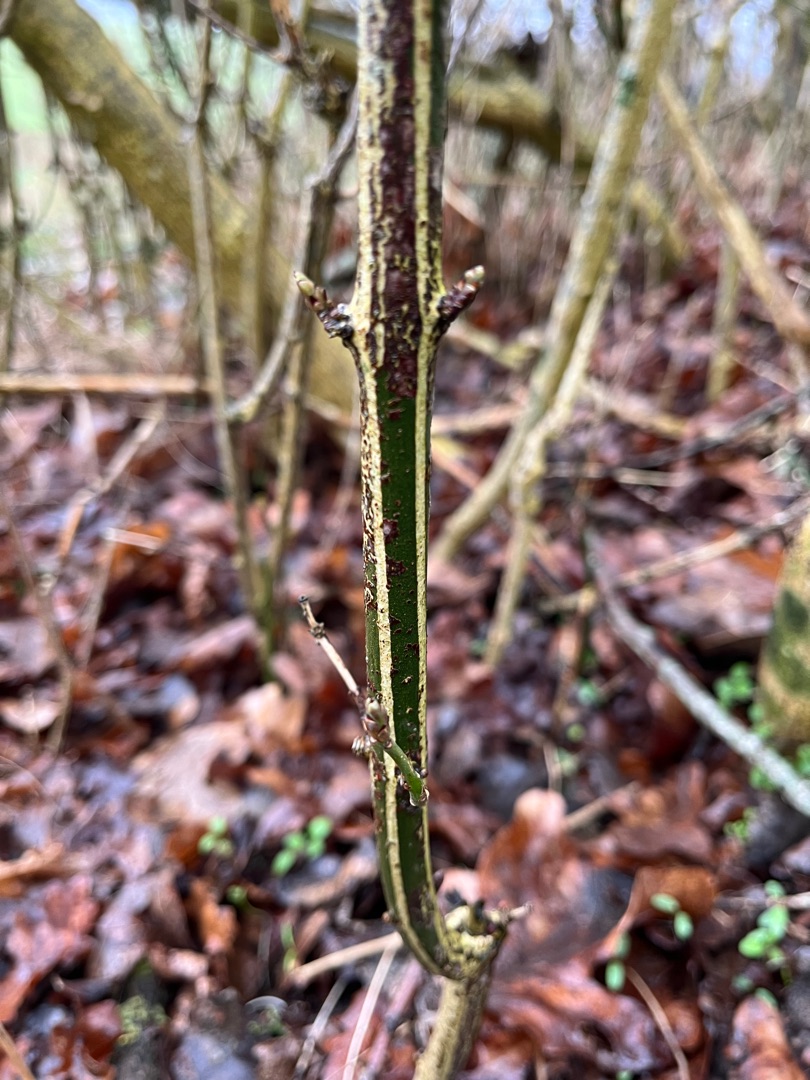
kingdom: Plantae
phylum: Tracheophyta
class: Magnoliopsida
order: Celastrales
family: Celastraceae
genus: Euonymus
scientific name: Euonymus europaeus
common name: Benved
